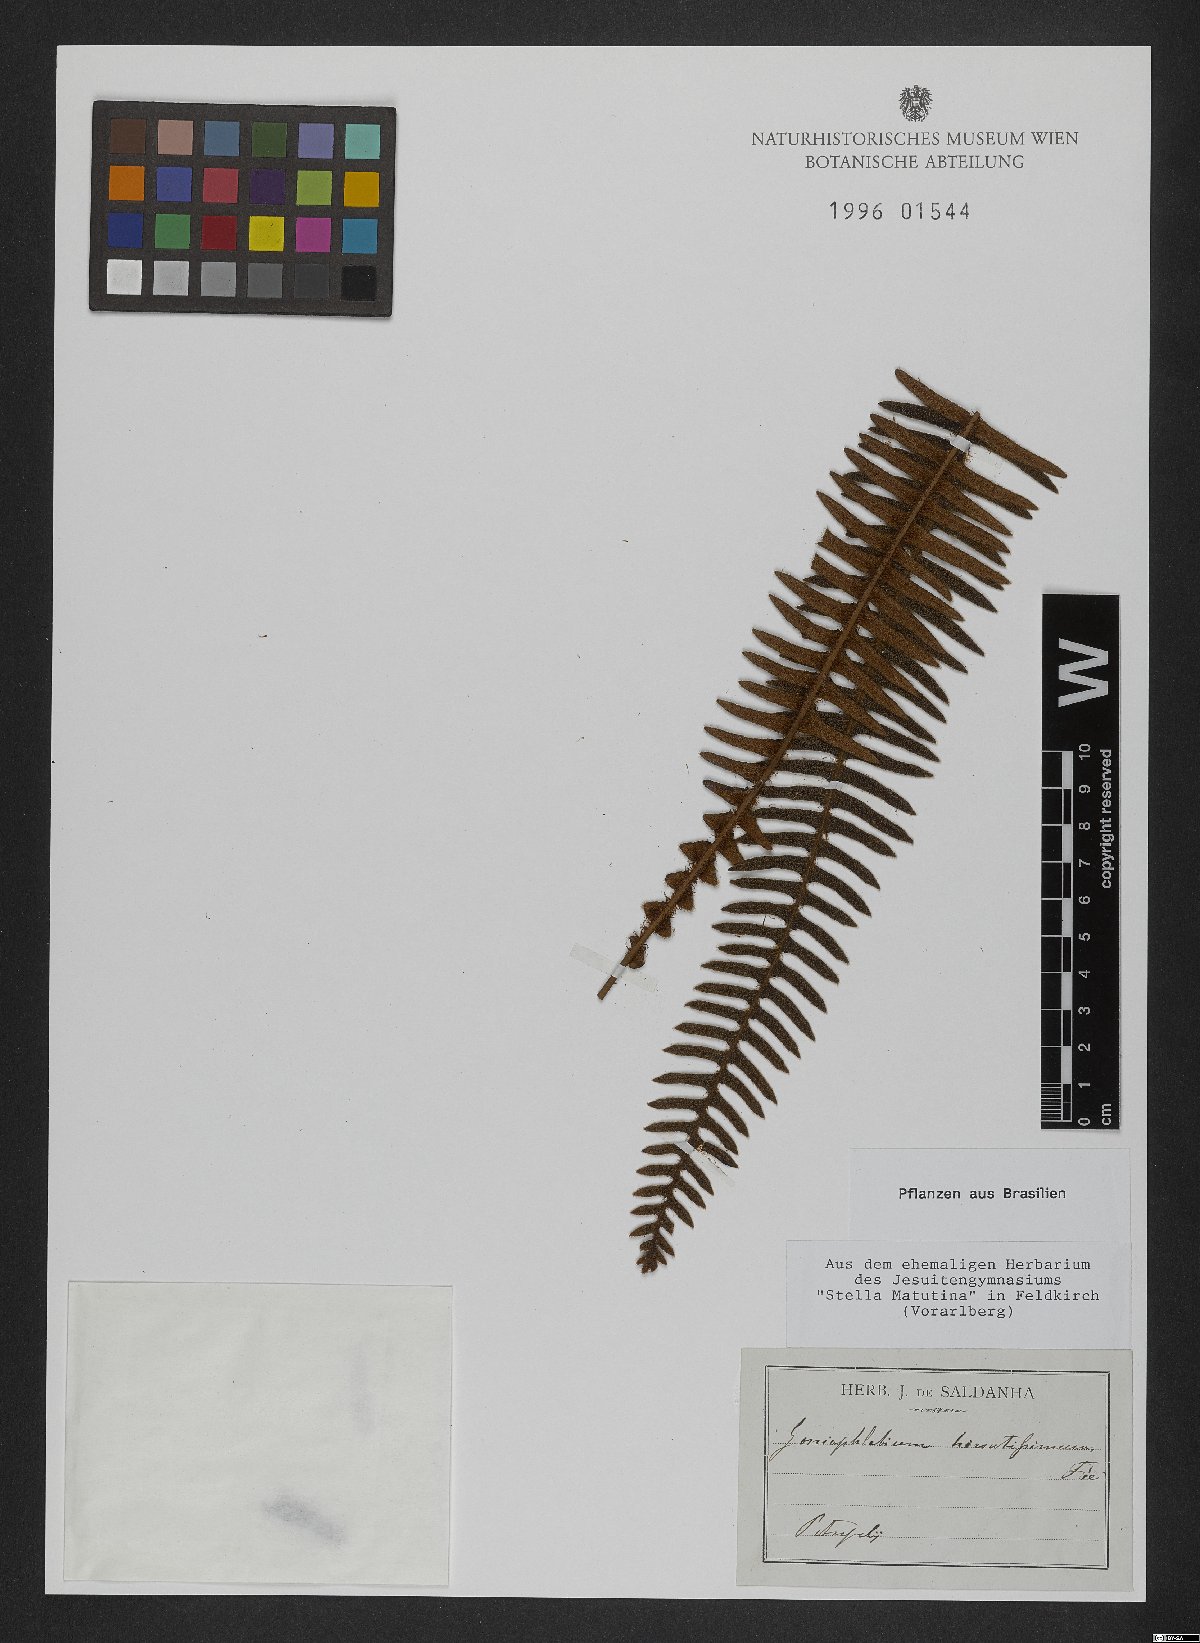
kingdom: Plantae
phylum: Tracheophyta
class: Polypodiopsida
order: Polypodiales
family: Polypodiaceae
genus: Goniophlebium
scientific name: Goniophlebium
